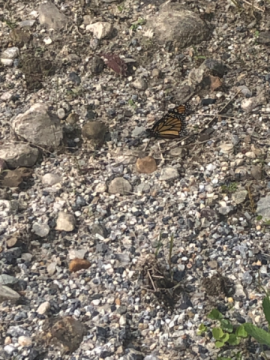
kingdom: Animalia
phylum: Arthropoda
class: Insecta
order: Lepidoptera
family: Nymphalidae
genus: Danaus
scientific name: Danaus plexippus
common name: Monarch
